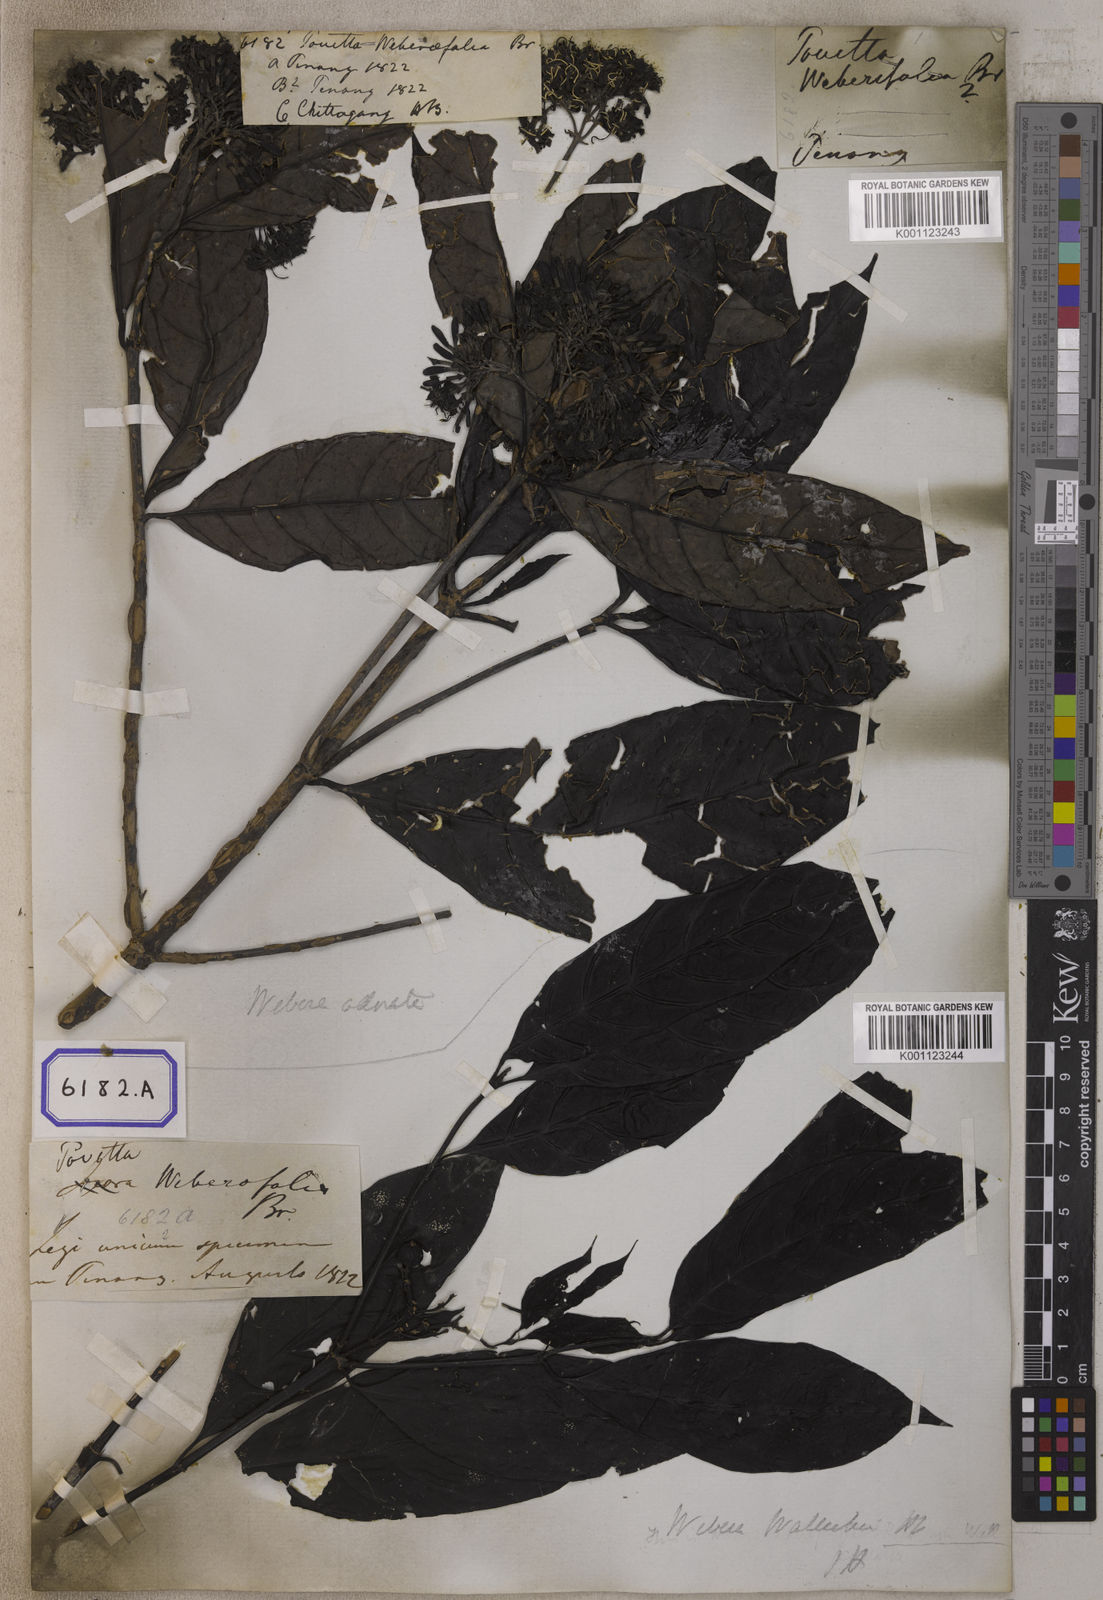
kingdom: Plantae
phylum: Tracheophyta
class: Magnoliopsida
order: Gentianales
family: Rubiaceae
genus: Pavetta
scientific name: Pavetta
